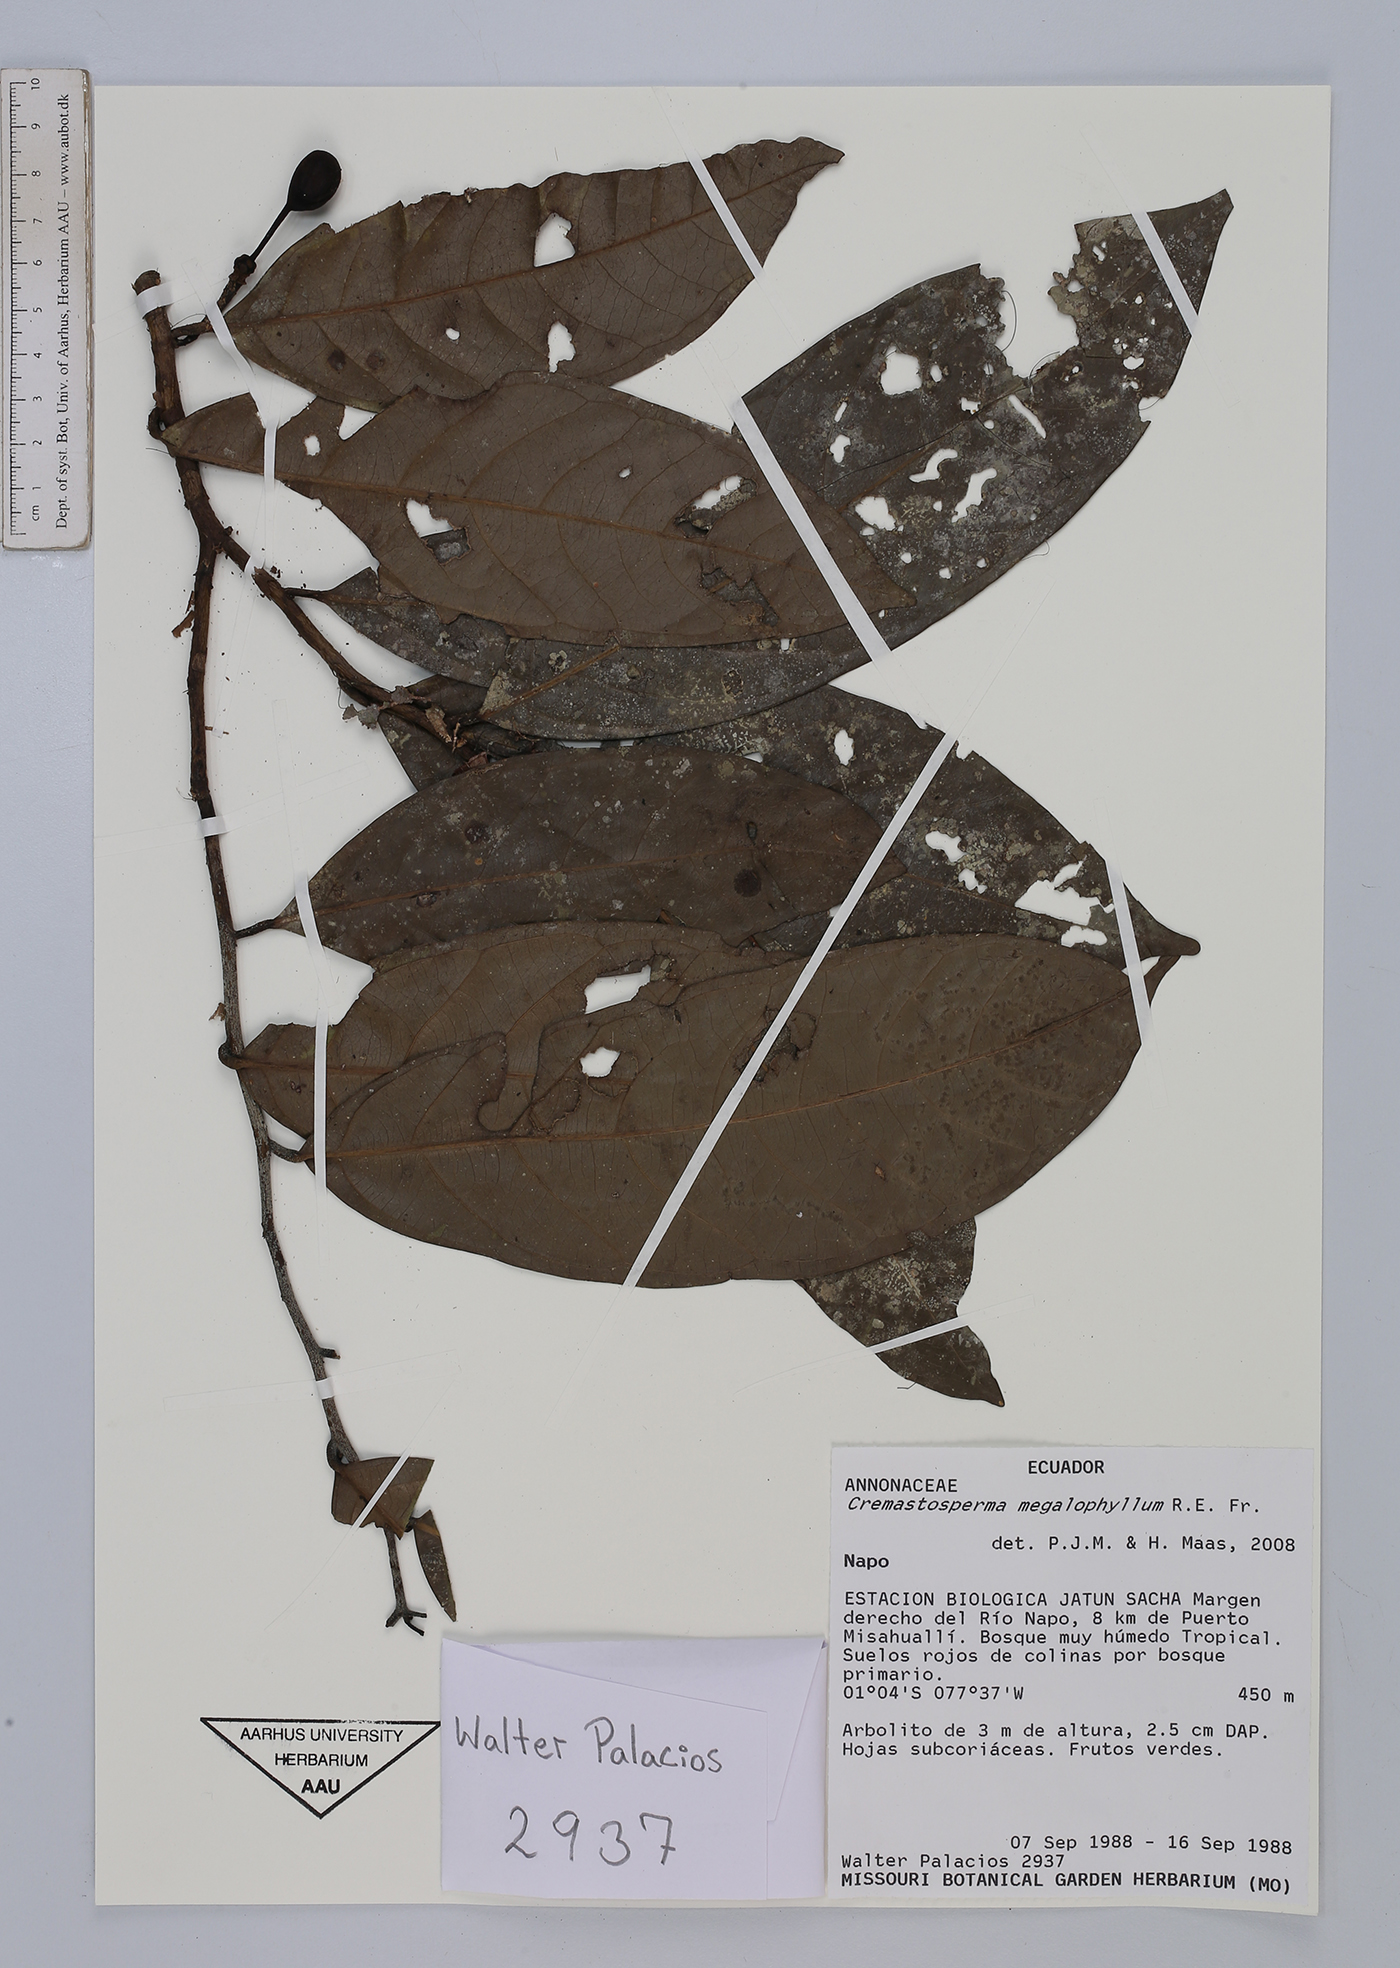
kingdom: Plantae
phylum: Tracheophyta
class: Magnoliopsida
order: Magnoliales
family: Annonaceae
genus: Cremastosperma
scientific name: Cremastosperma megalophyllum
